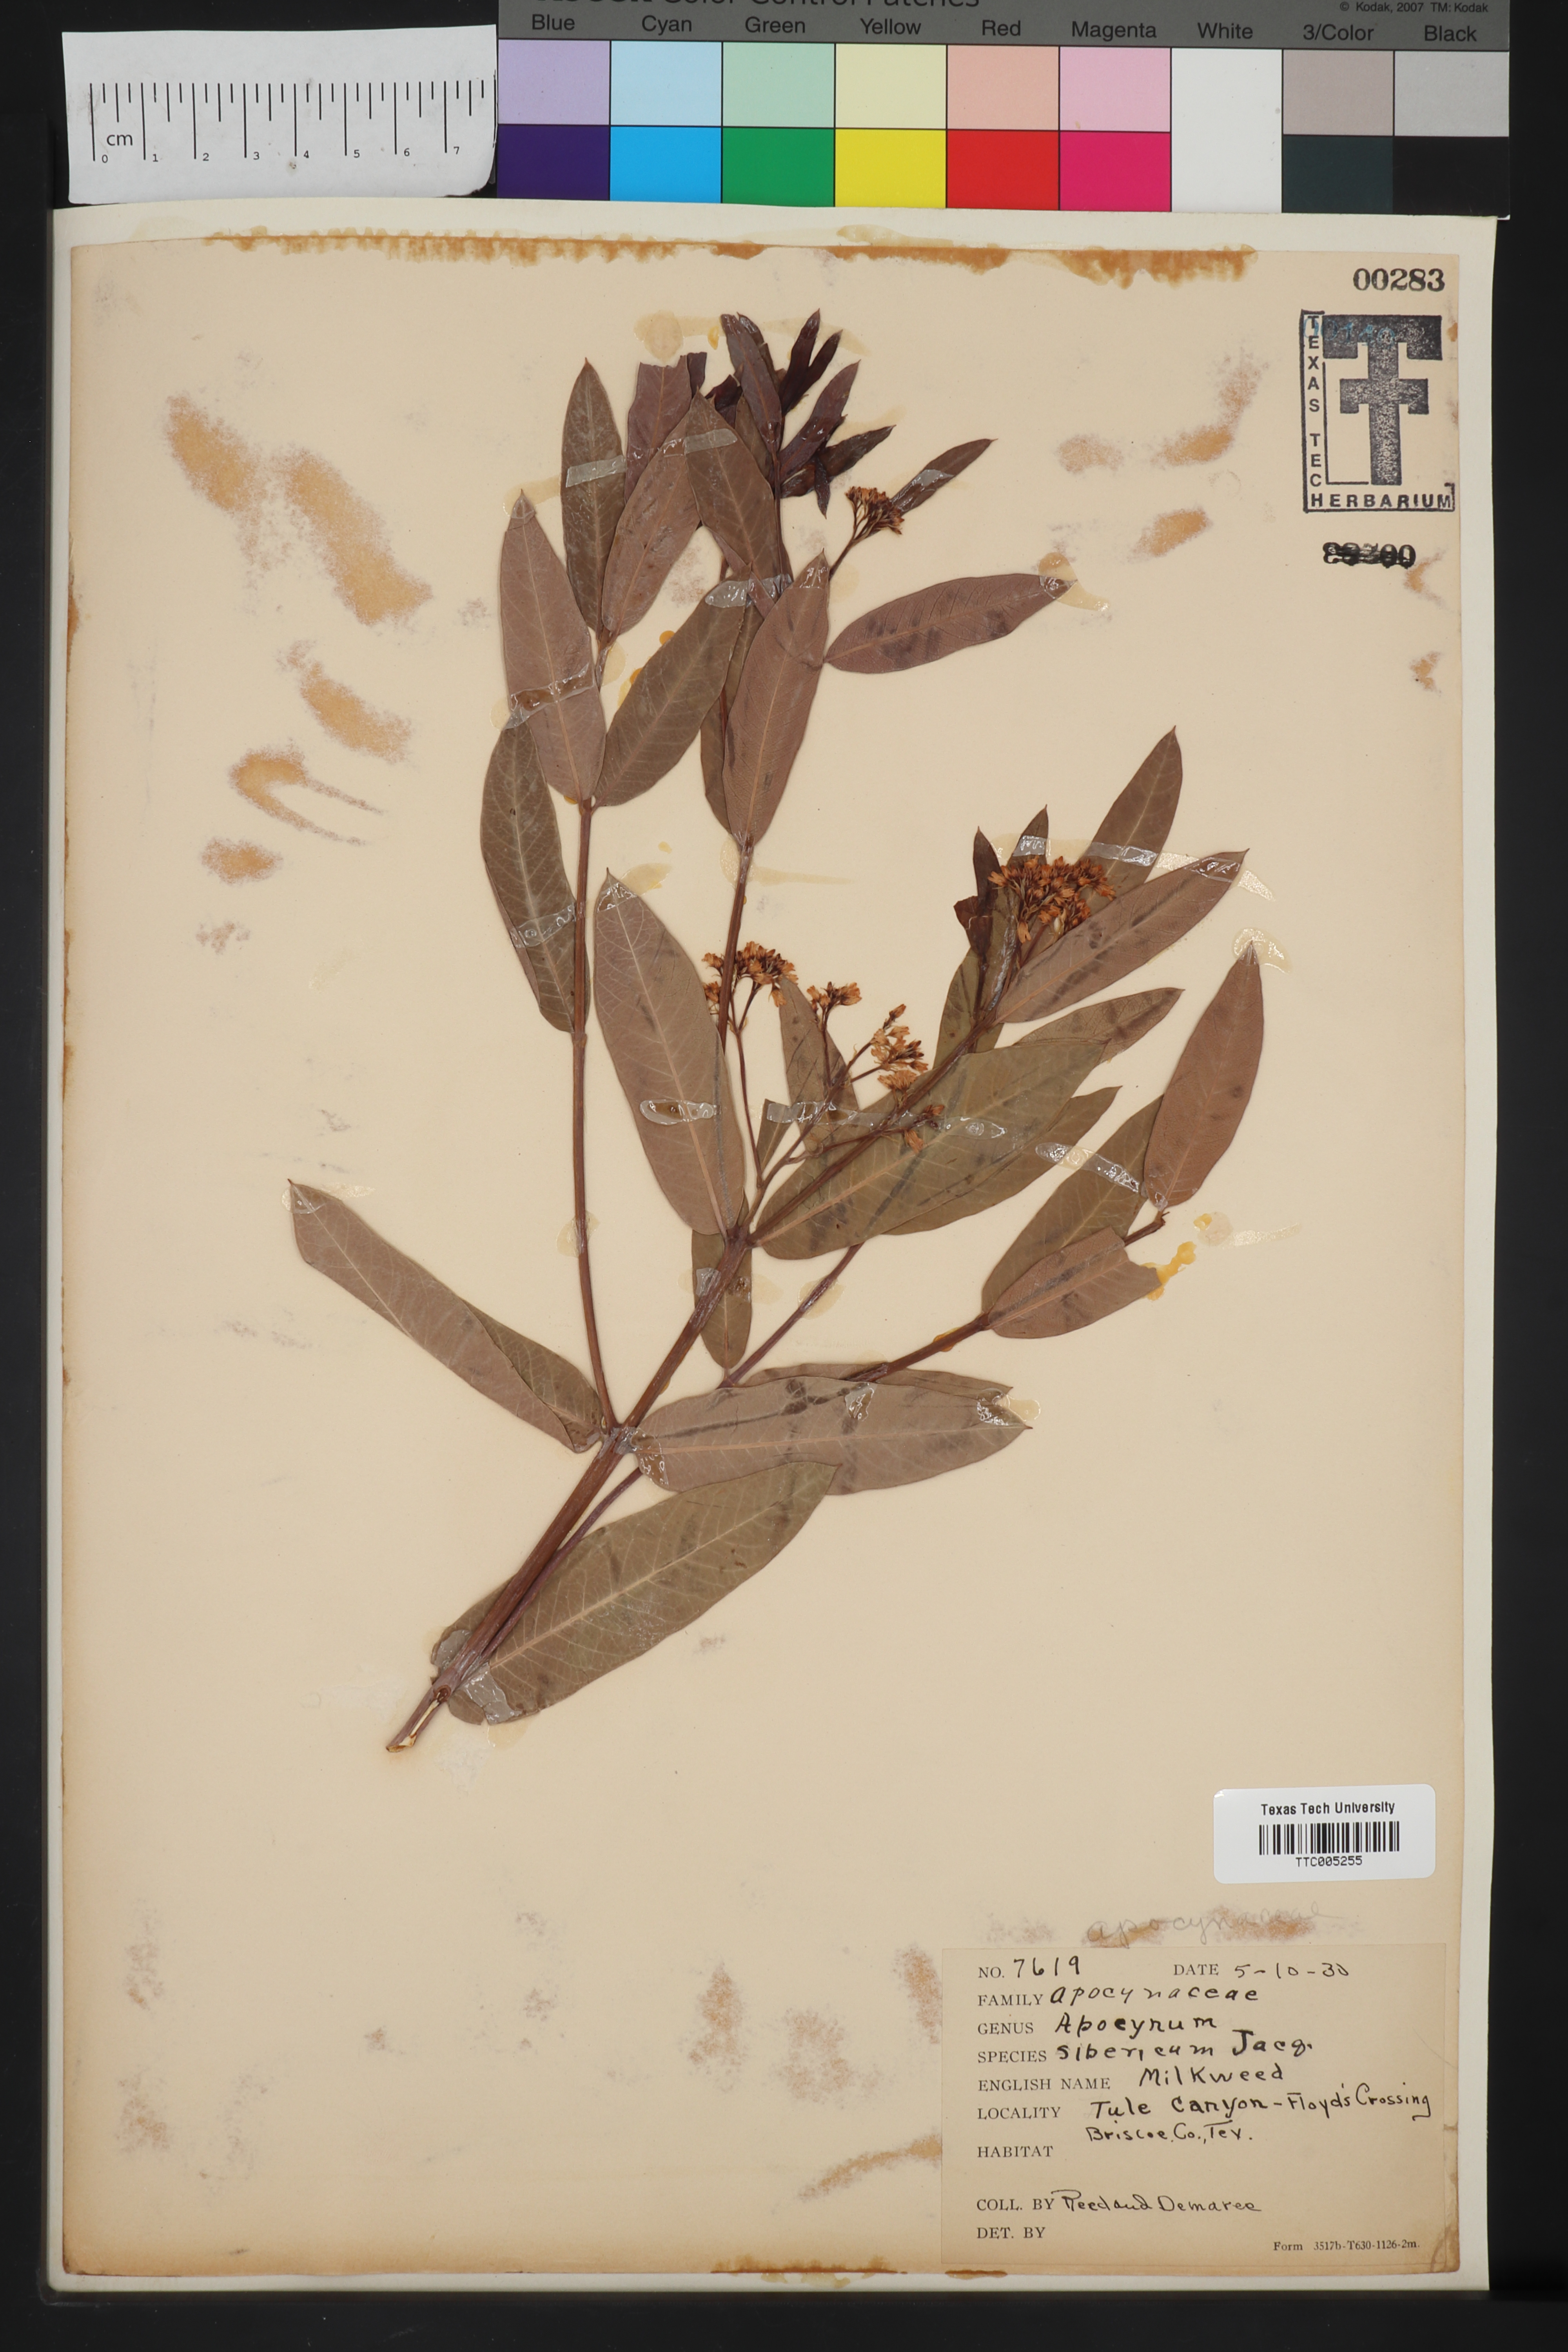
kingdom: Plantae
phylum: Tracheophyta
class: Magnoliopsida
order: Gentianales
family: Apocynaceae
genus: Apocynum
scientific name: Apocynum sibiricum
